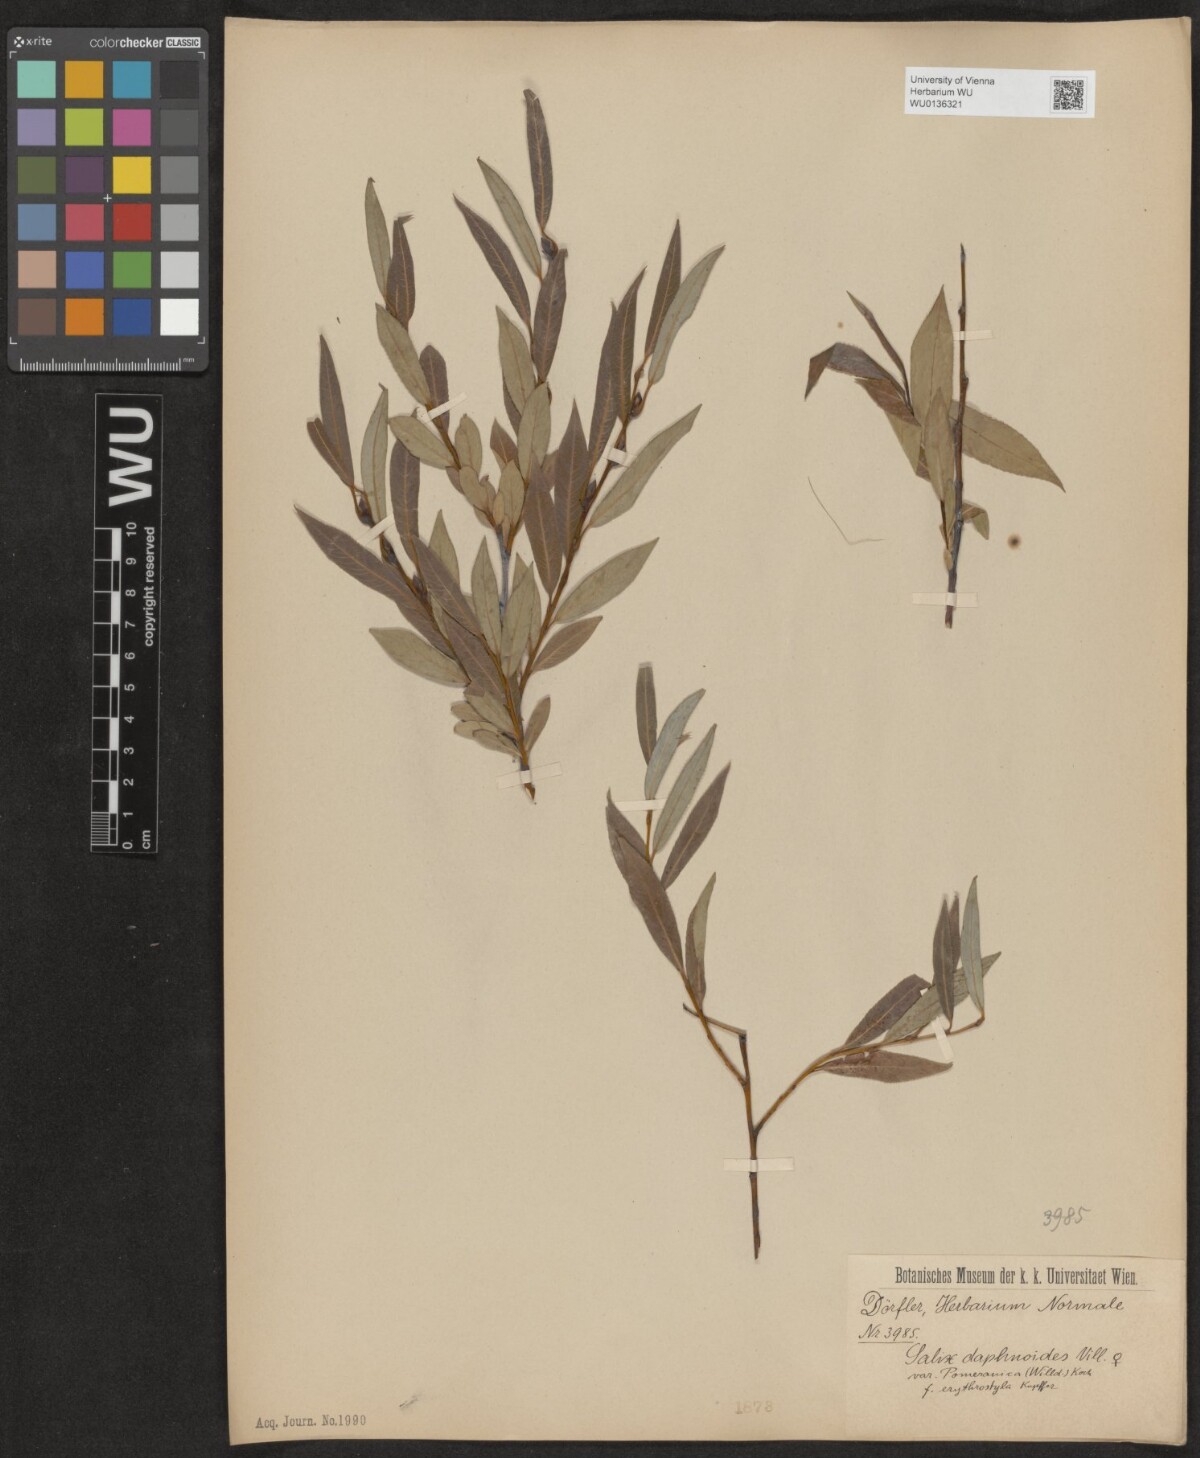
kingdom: Plantae
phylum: Tracheophyta
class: Magnoliopsida
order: Malpighiales
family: Salicaceae
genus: Salix
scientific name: Salix daphnoides
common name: European violet-willow
